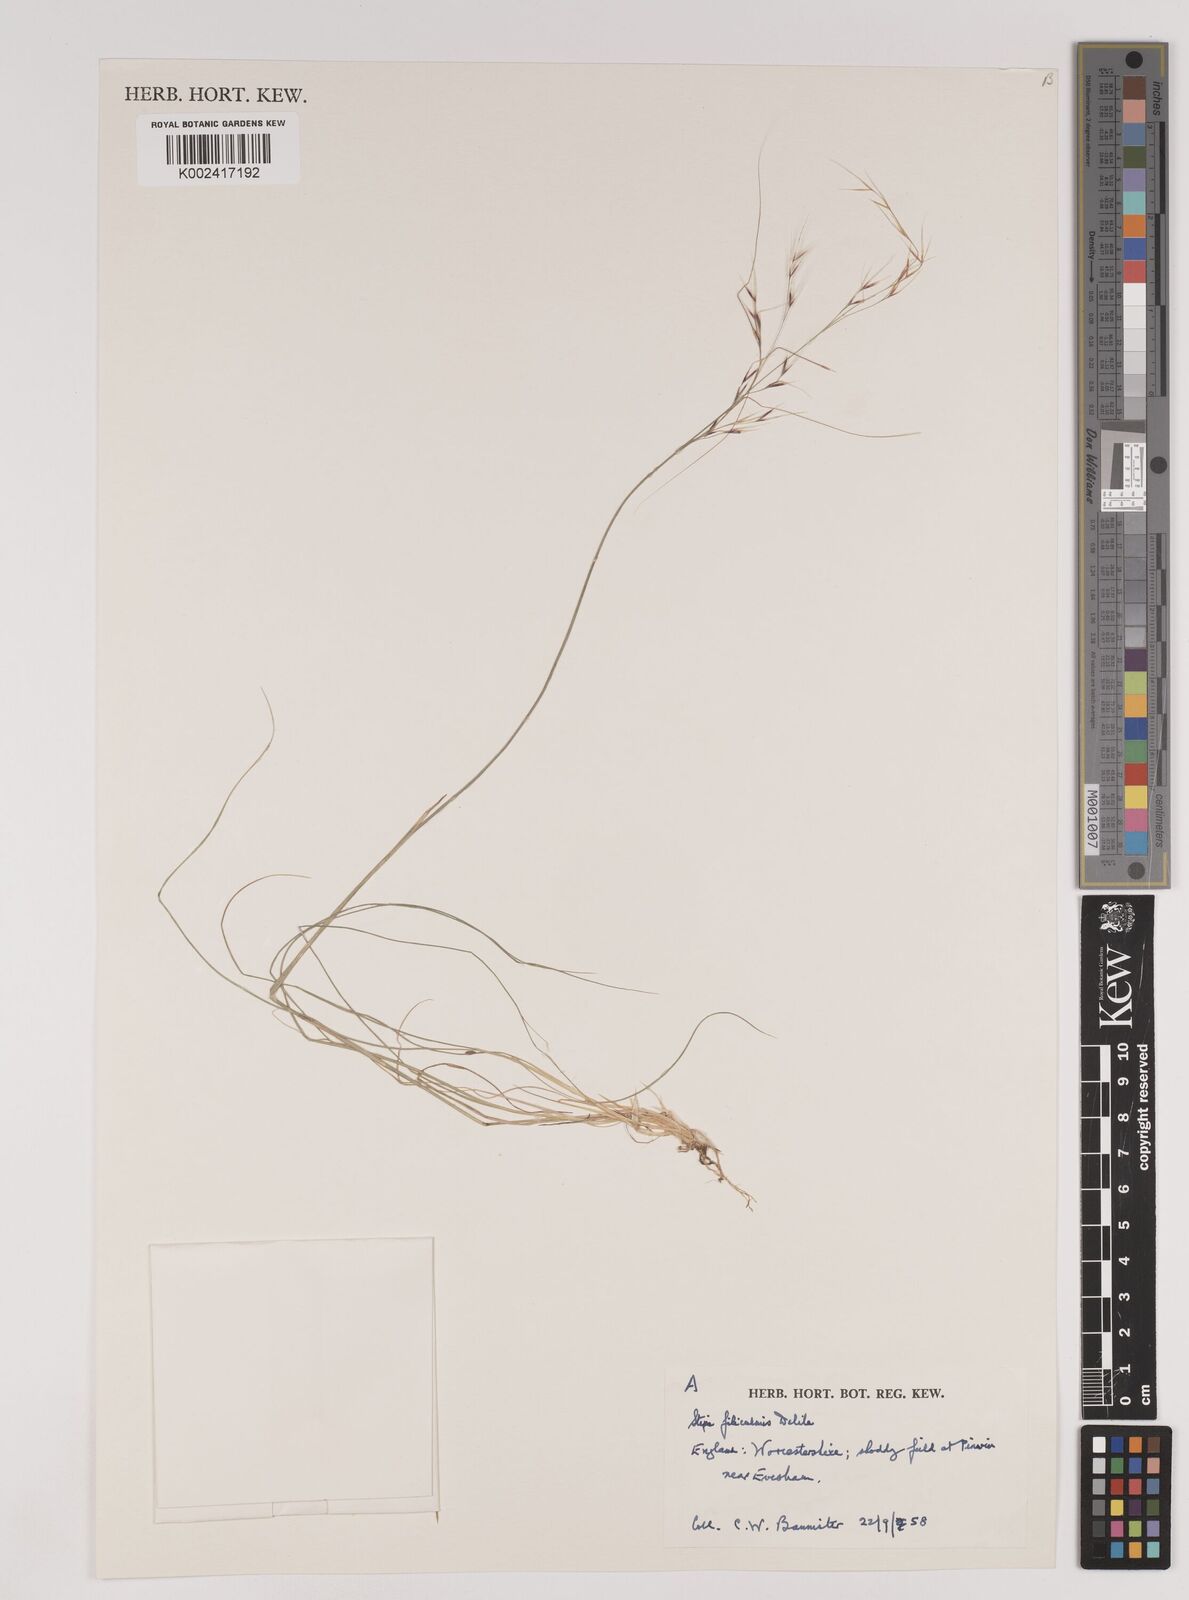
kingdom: Plantae
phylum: Tracheophyta
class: Liliopsida
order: Poales
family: Poaceae
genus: Nassella
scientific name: Nassella filiculmis
